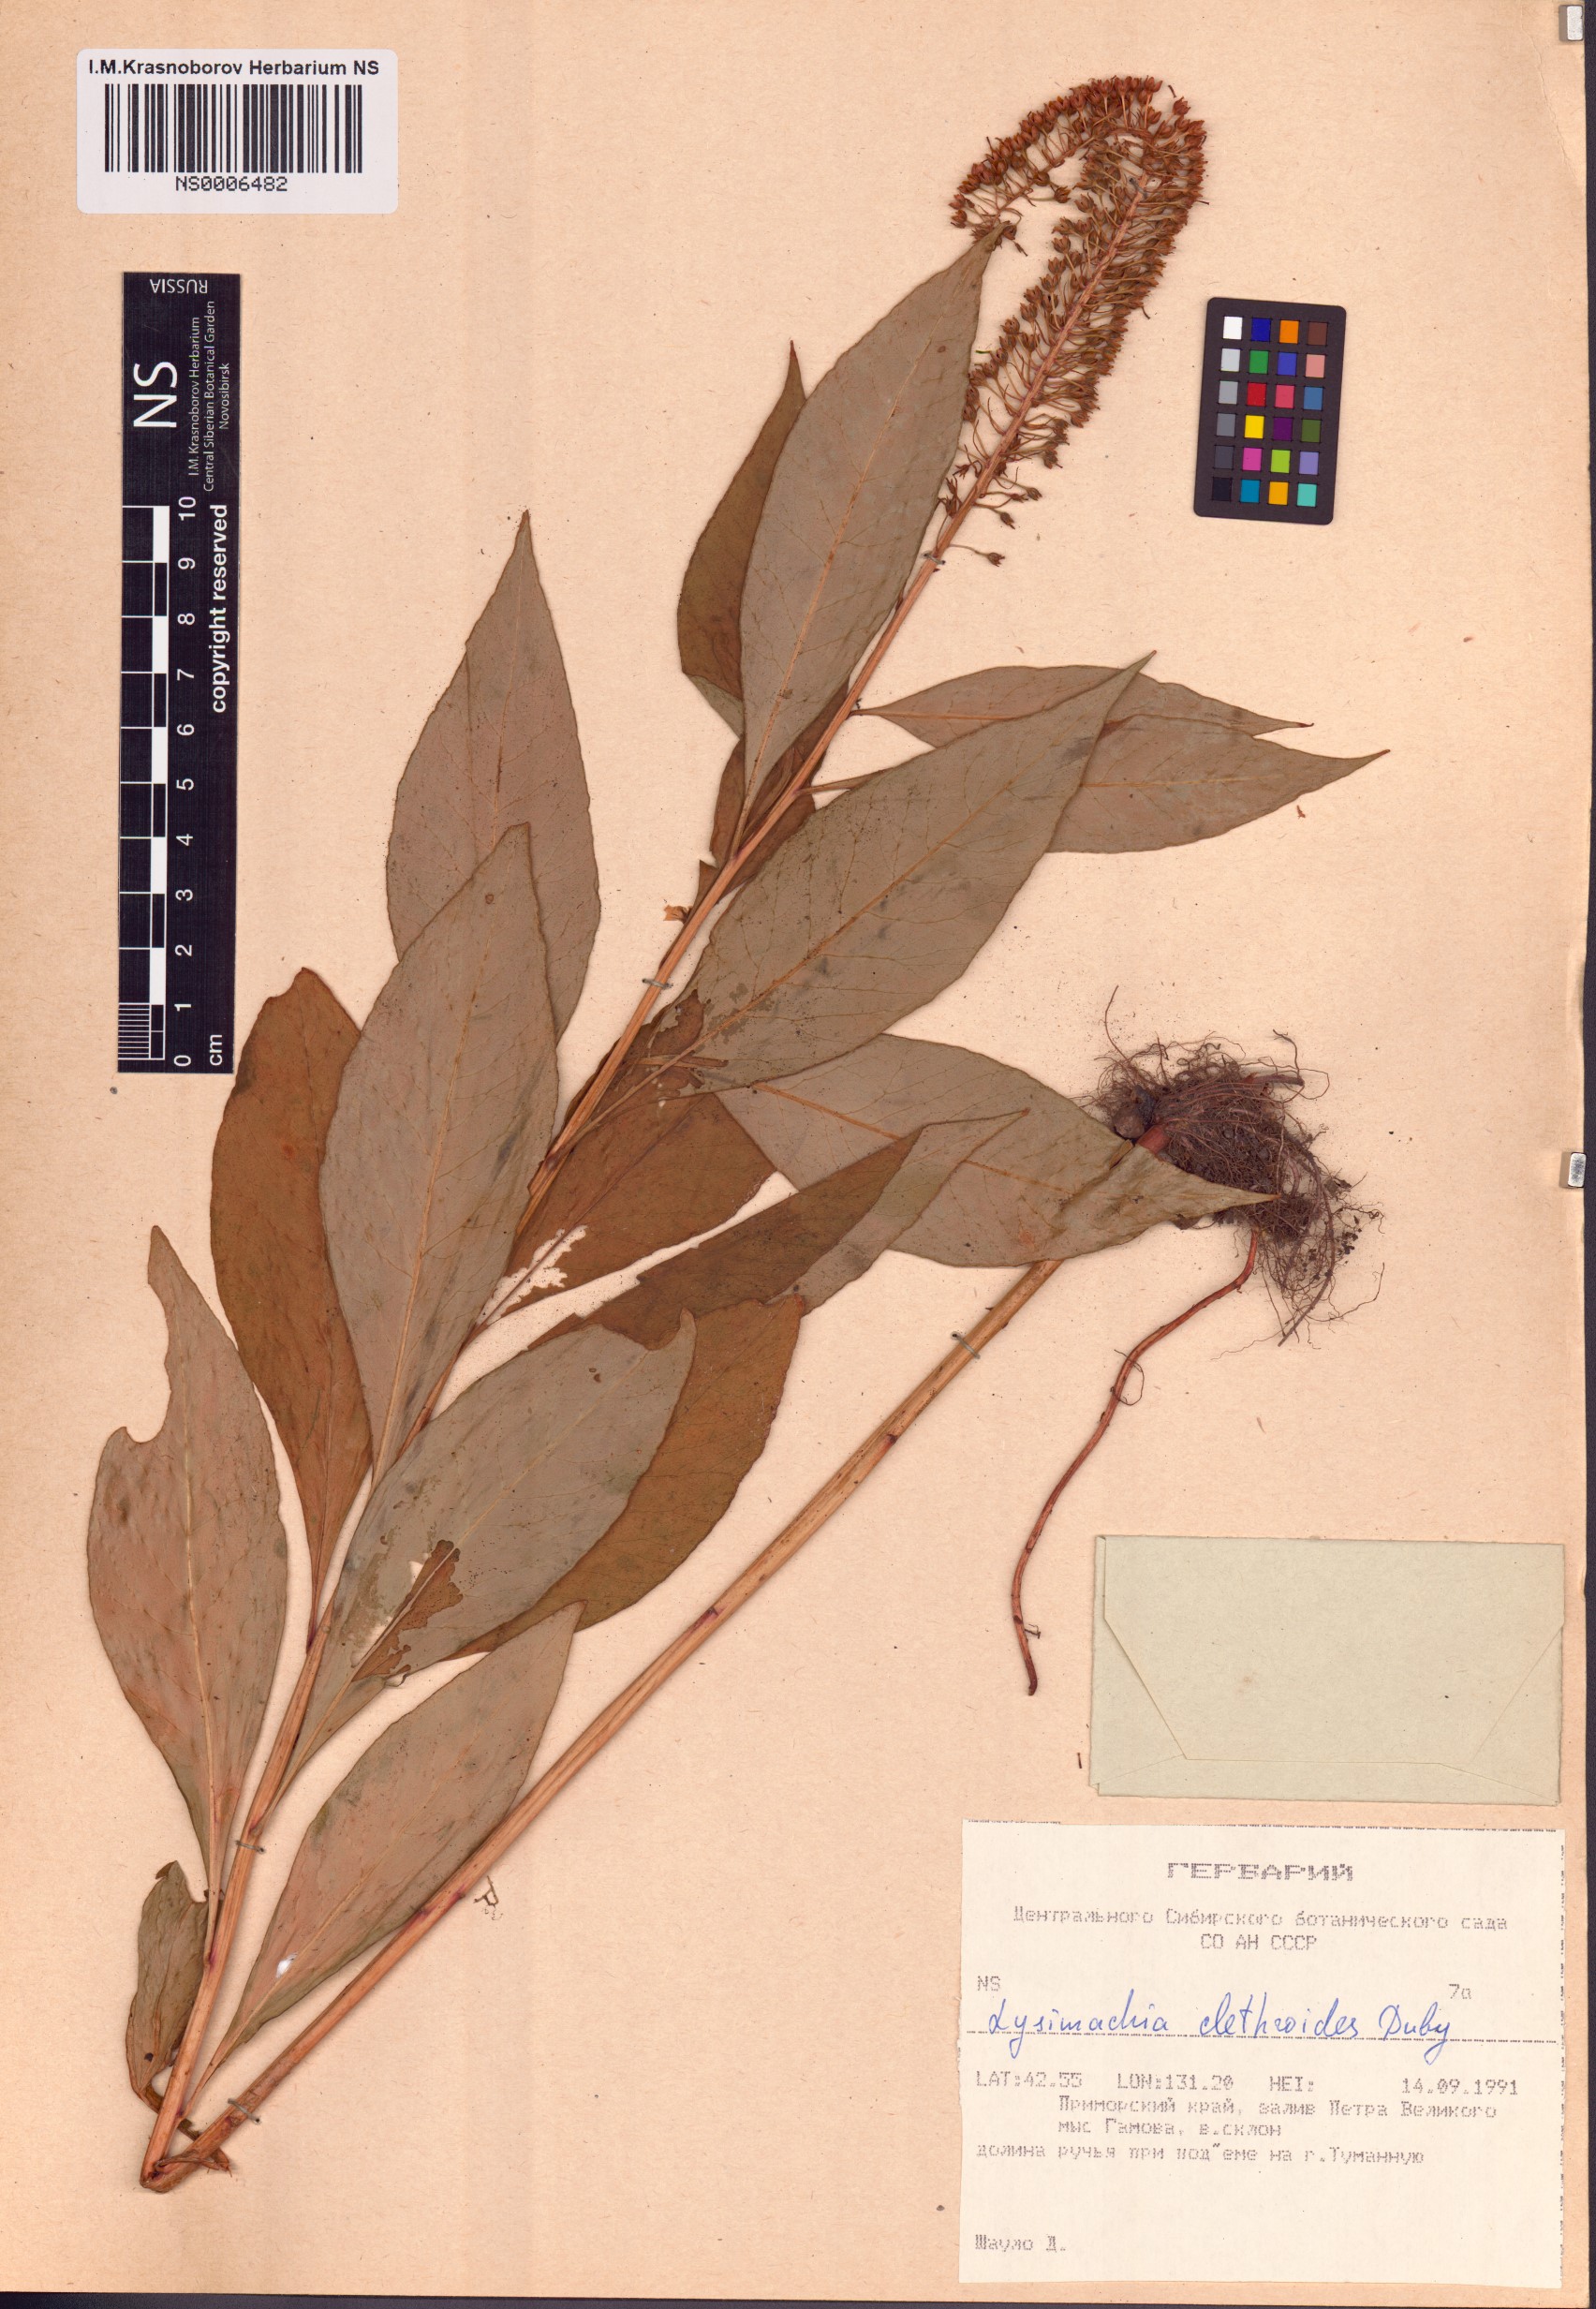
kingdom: Plantae
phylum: Tracheophyta
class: Magnoliopsida
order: Ericales
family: Primulaceae
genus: Lysimachia
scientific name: Lysimachia clethroides
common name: Gooseneck loosestrife
